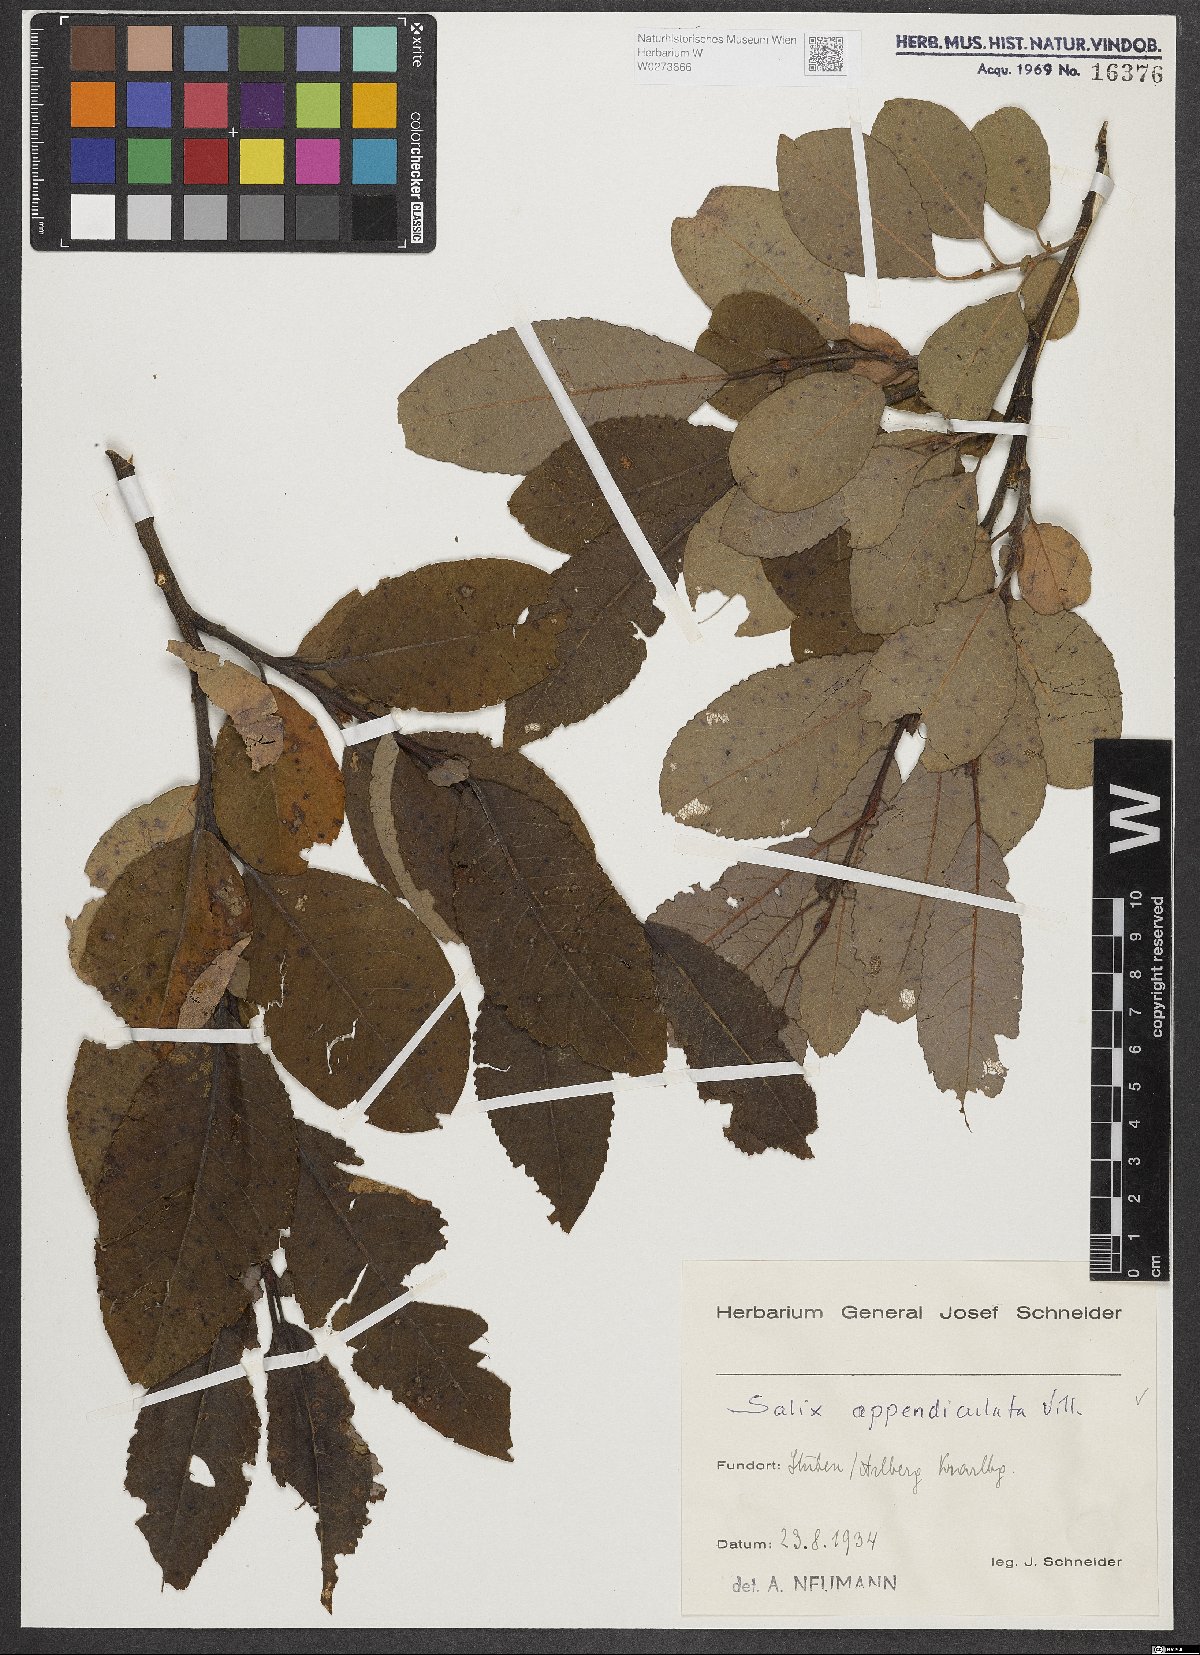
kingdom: Plantae
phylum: Tracheophyta
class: Magnoliopsida
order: Malpighiales
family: Salicaceae
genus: Salix
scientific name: Salix appendiculata
